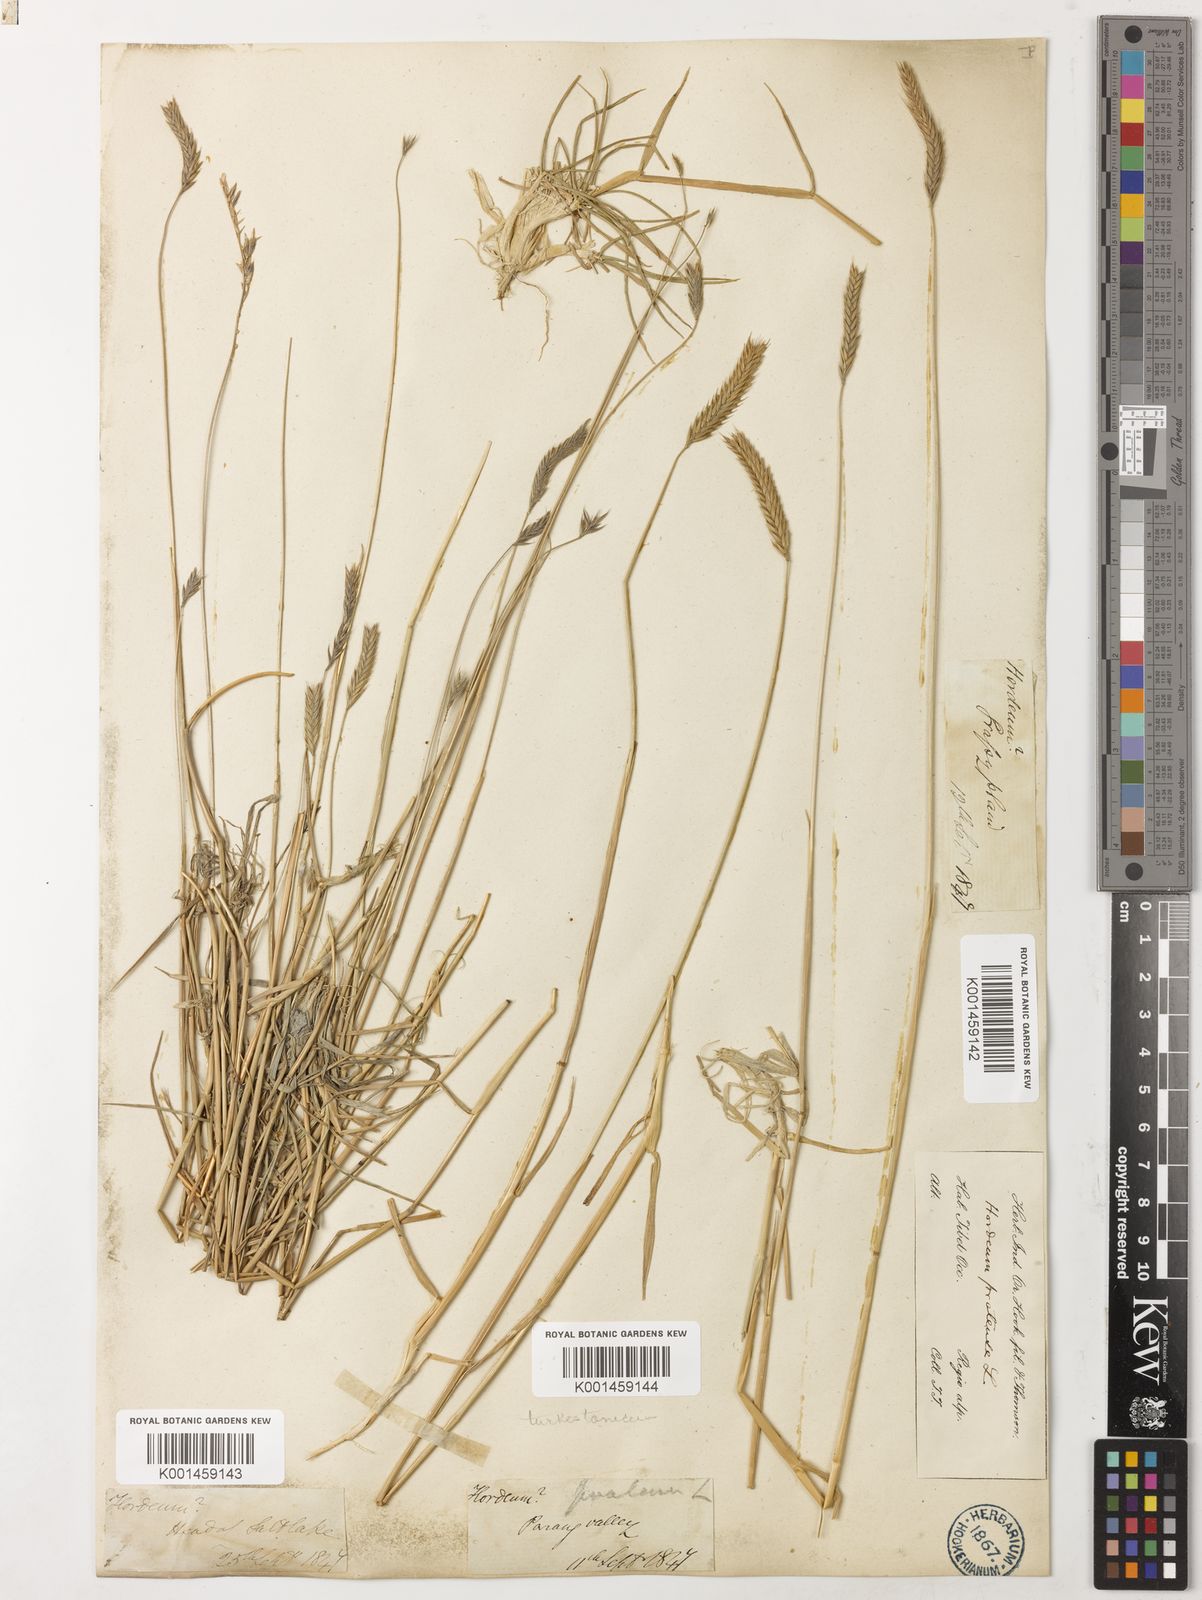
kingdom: Plantae
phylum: Tracheophyta
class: Liliopsida
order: Poales
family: Poaceae
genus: Hordeum
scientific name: Hordeum brevisubulatum
